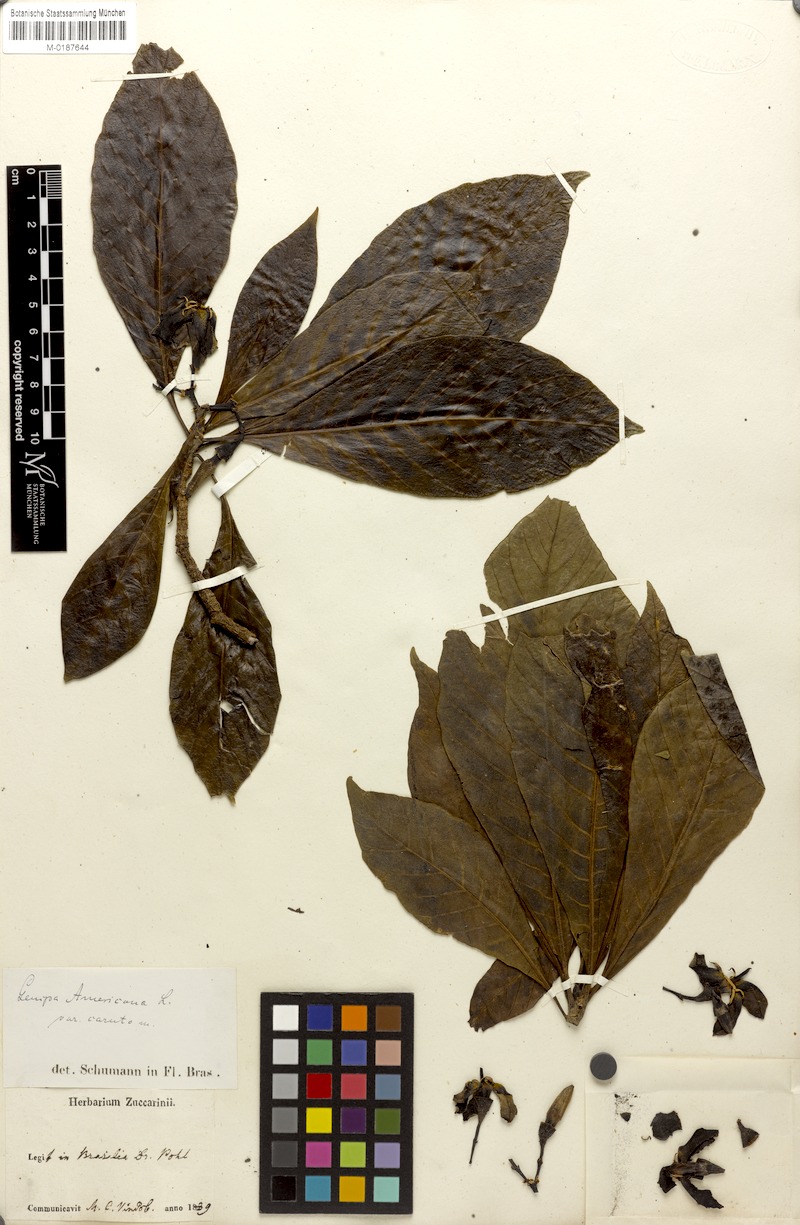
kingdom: Plantae
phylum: Tracheophyta
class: Magnoliopsida
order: Gentianales
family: Rubiaceae
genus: Genipa
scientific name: Genipa americana
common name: Genipap
